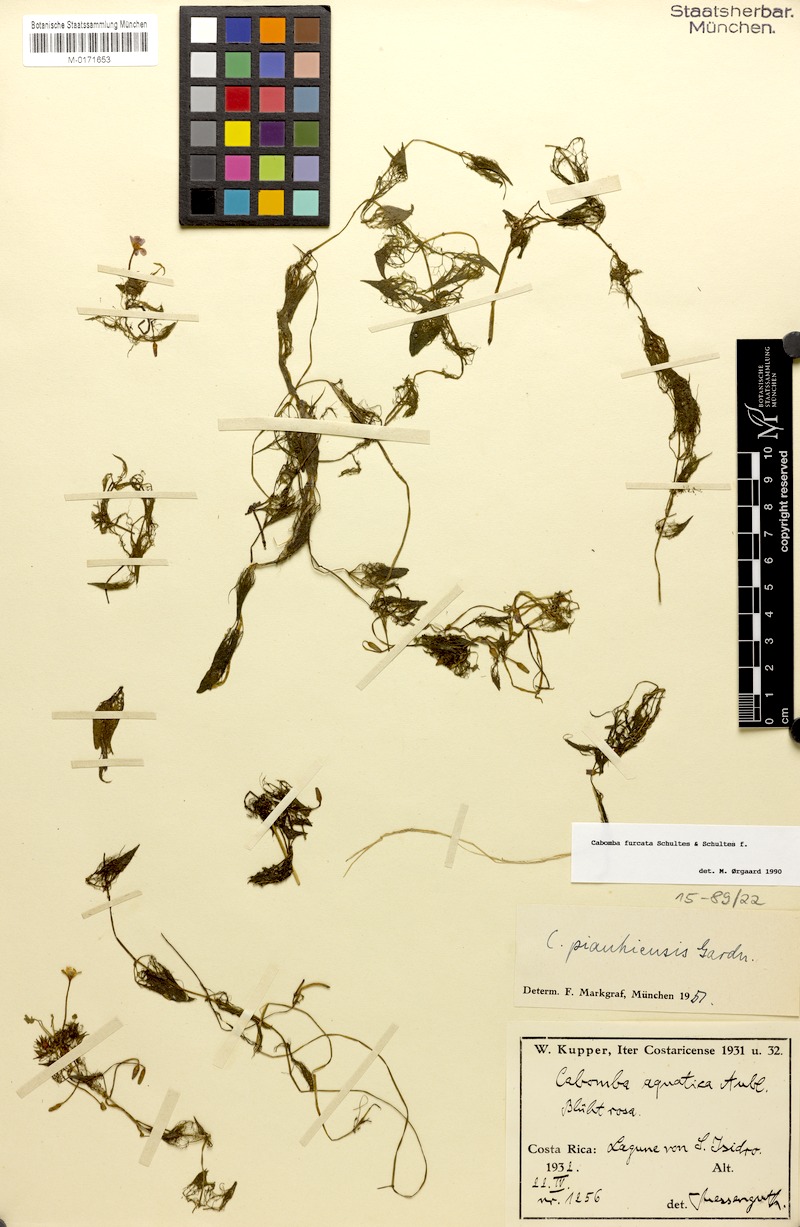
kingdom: Plantae
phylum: Tracheophyta
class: Magnoliopsida
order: Nymphaeales
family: Cabombaceae
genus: Cabomba
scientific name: Cabomba furcata
